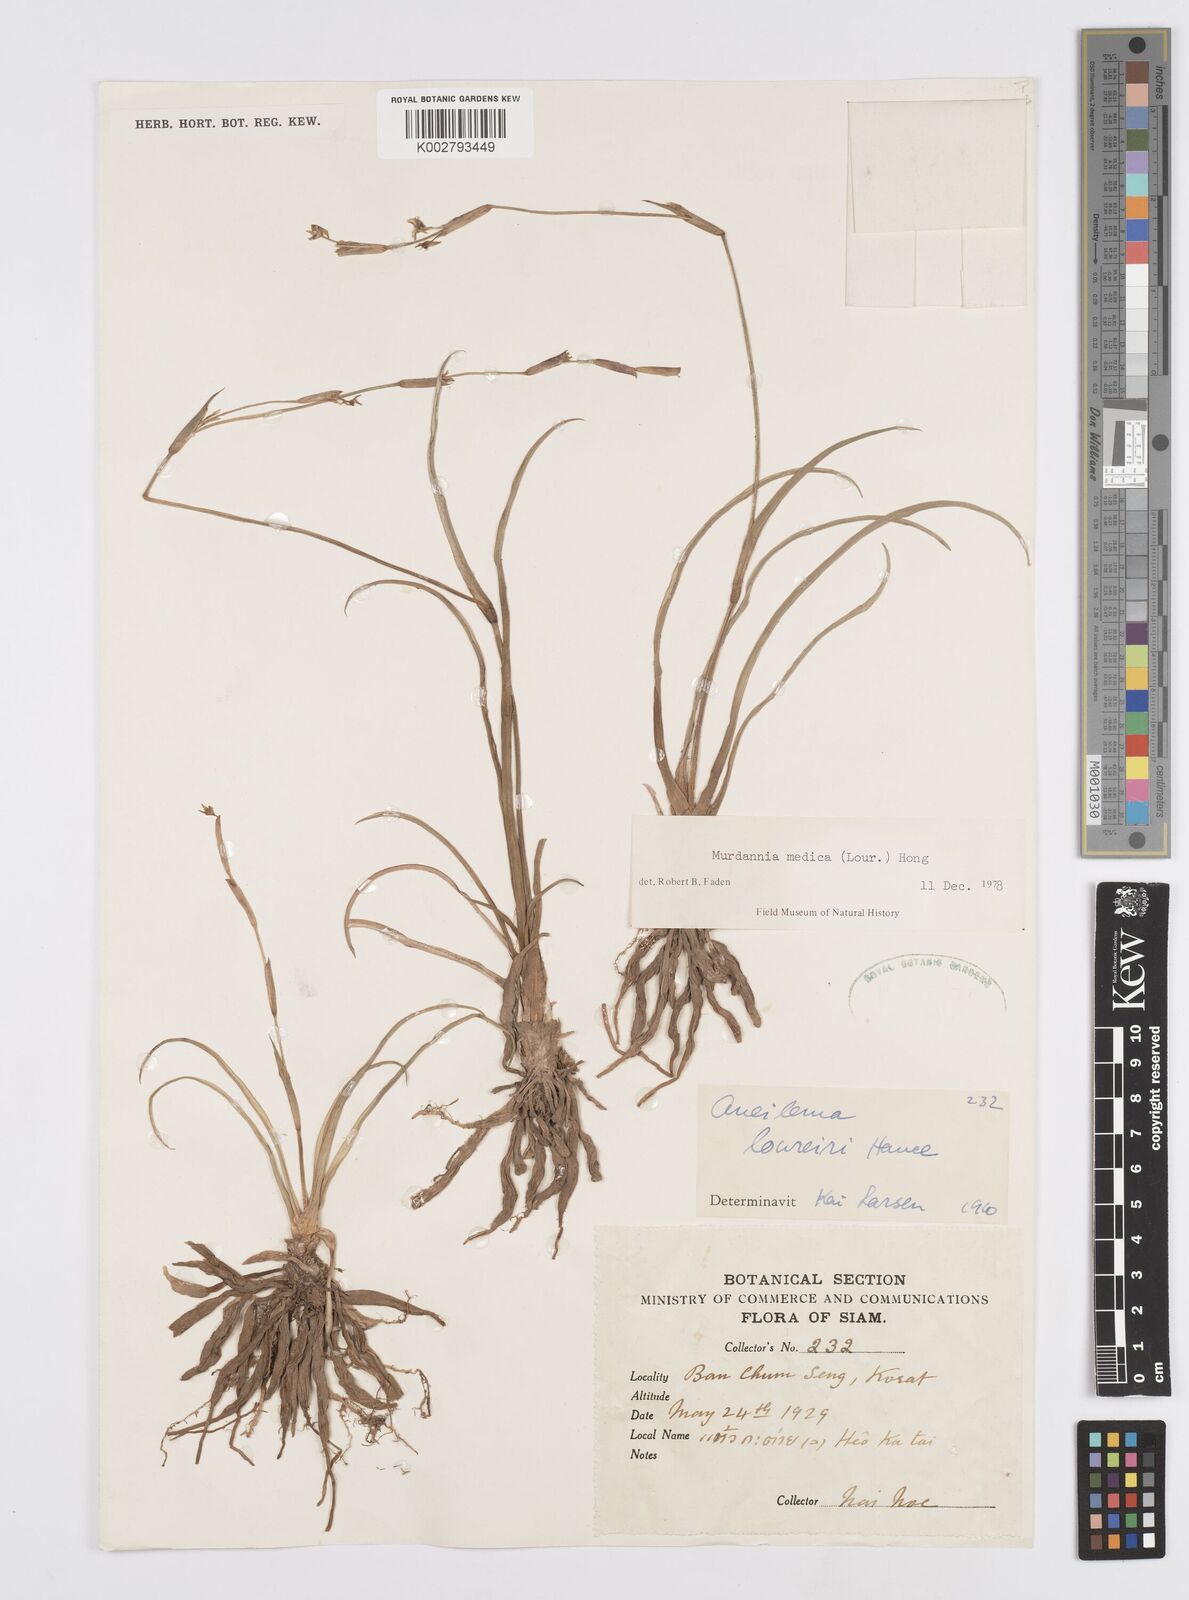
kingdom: Plantae
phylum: Tracheophyta
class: Liliopsida
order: Commelinales
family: Commelinaceae
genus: Murdannia
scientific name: Murdannia medica
